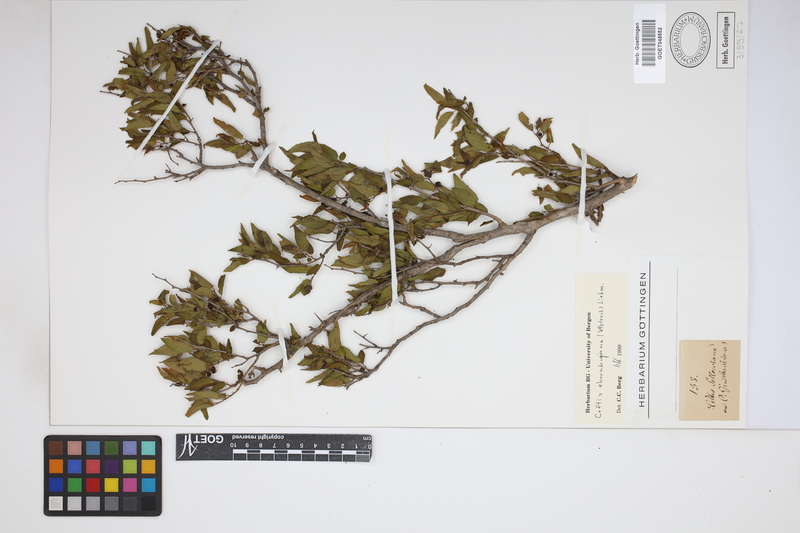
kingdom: Plantae
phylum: Tracheophyta
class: Magnoliopsida
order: Rosales
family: Cannabaceae
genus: Celtis
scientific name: Celtis iguanaea
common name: Iguana hackberry
